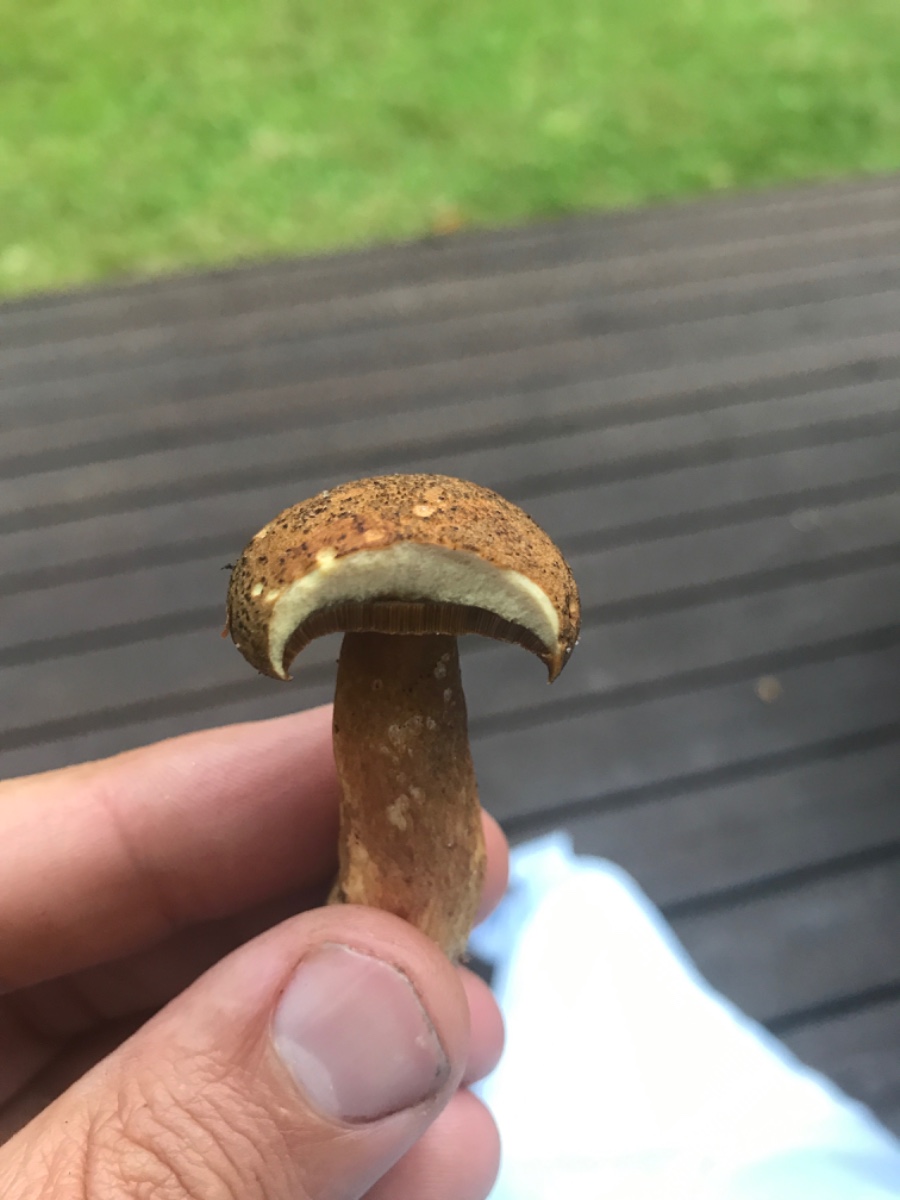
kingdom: Fungi
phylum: Basidiomycota
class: Agaricomycetes
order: Boletales
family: Suillaceae
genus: Suillus
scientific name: Suillus variegatus
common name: broget slimrørhat
